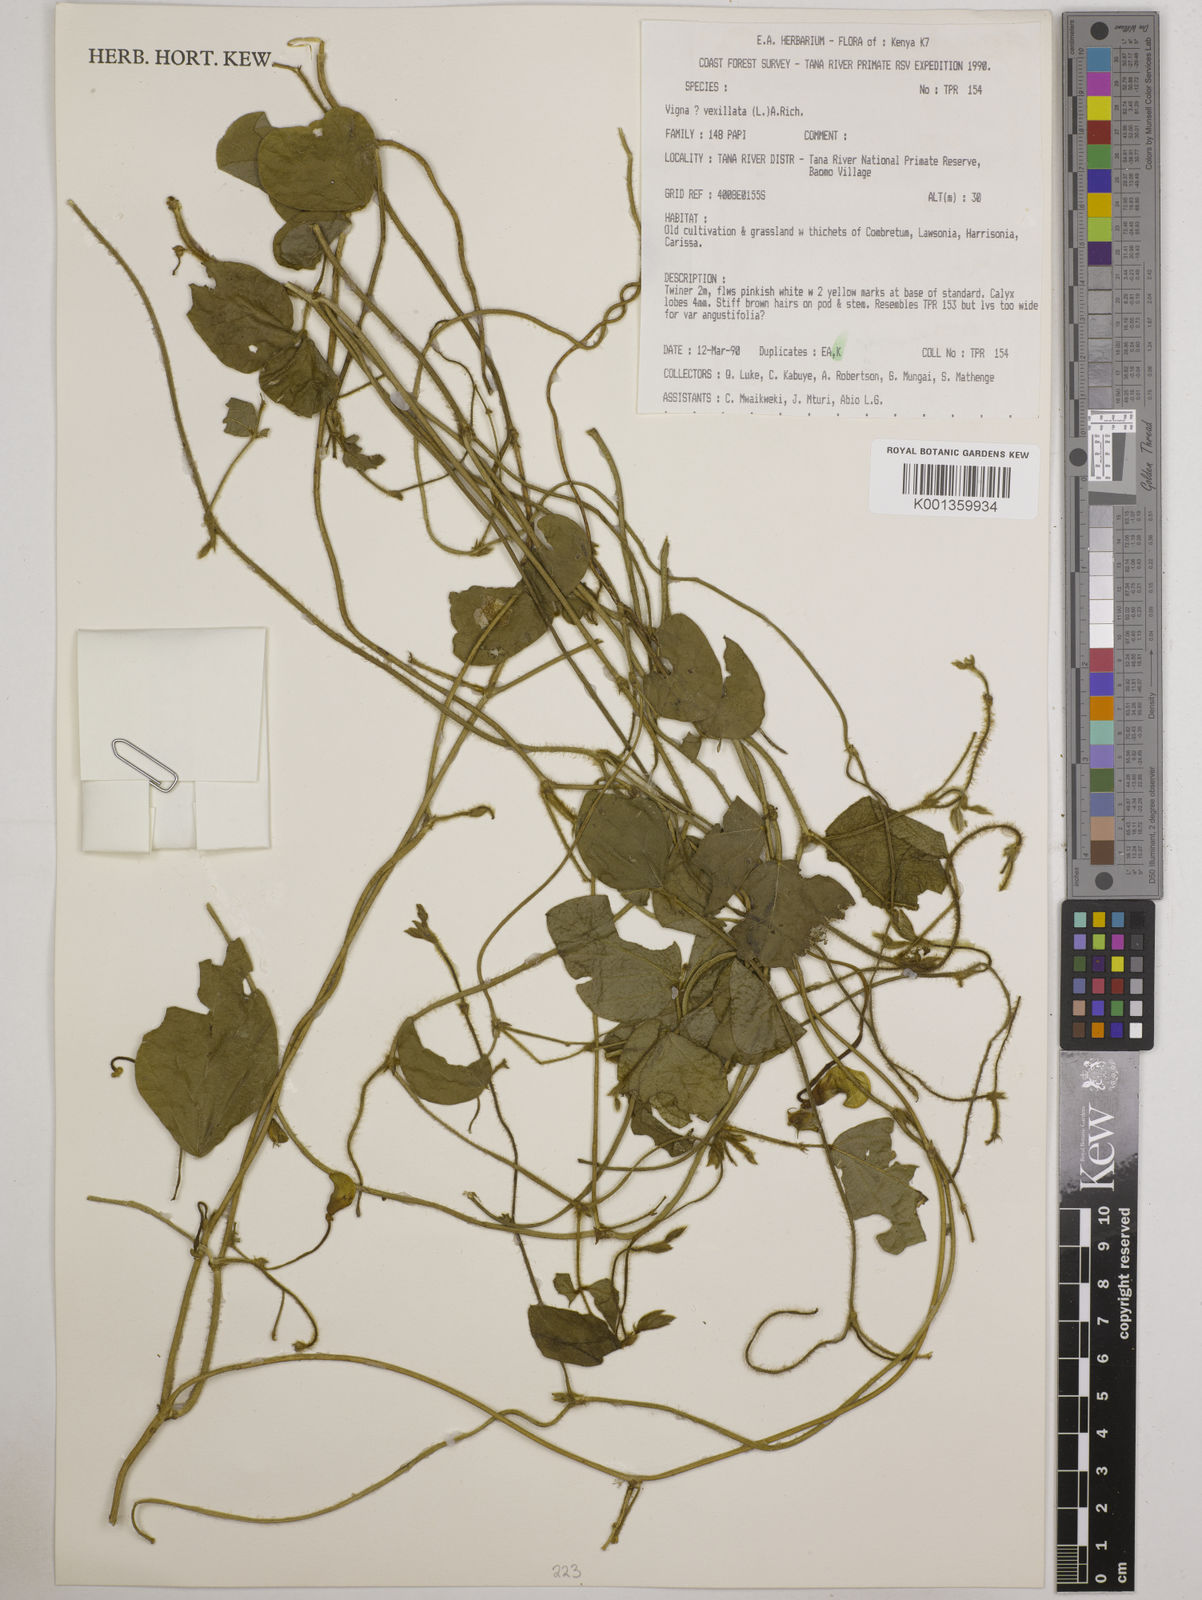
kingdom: Plantae
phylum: Tracheophyta
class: Magnoliopsida
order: Fabales
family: Fabaceae
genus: Vigna
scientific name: Vigna vexillata
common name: Zombi pea
